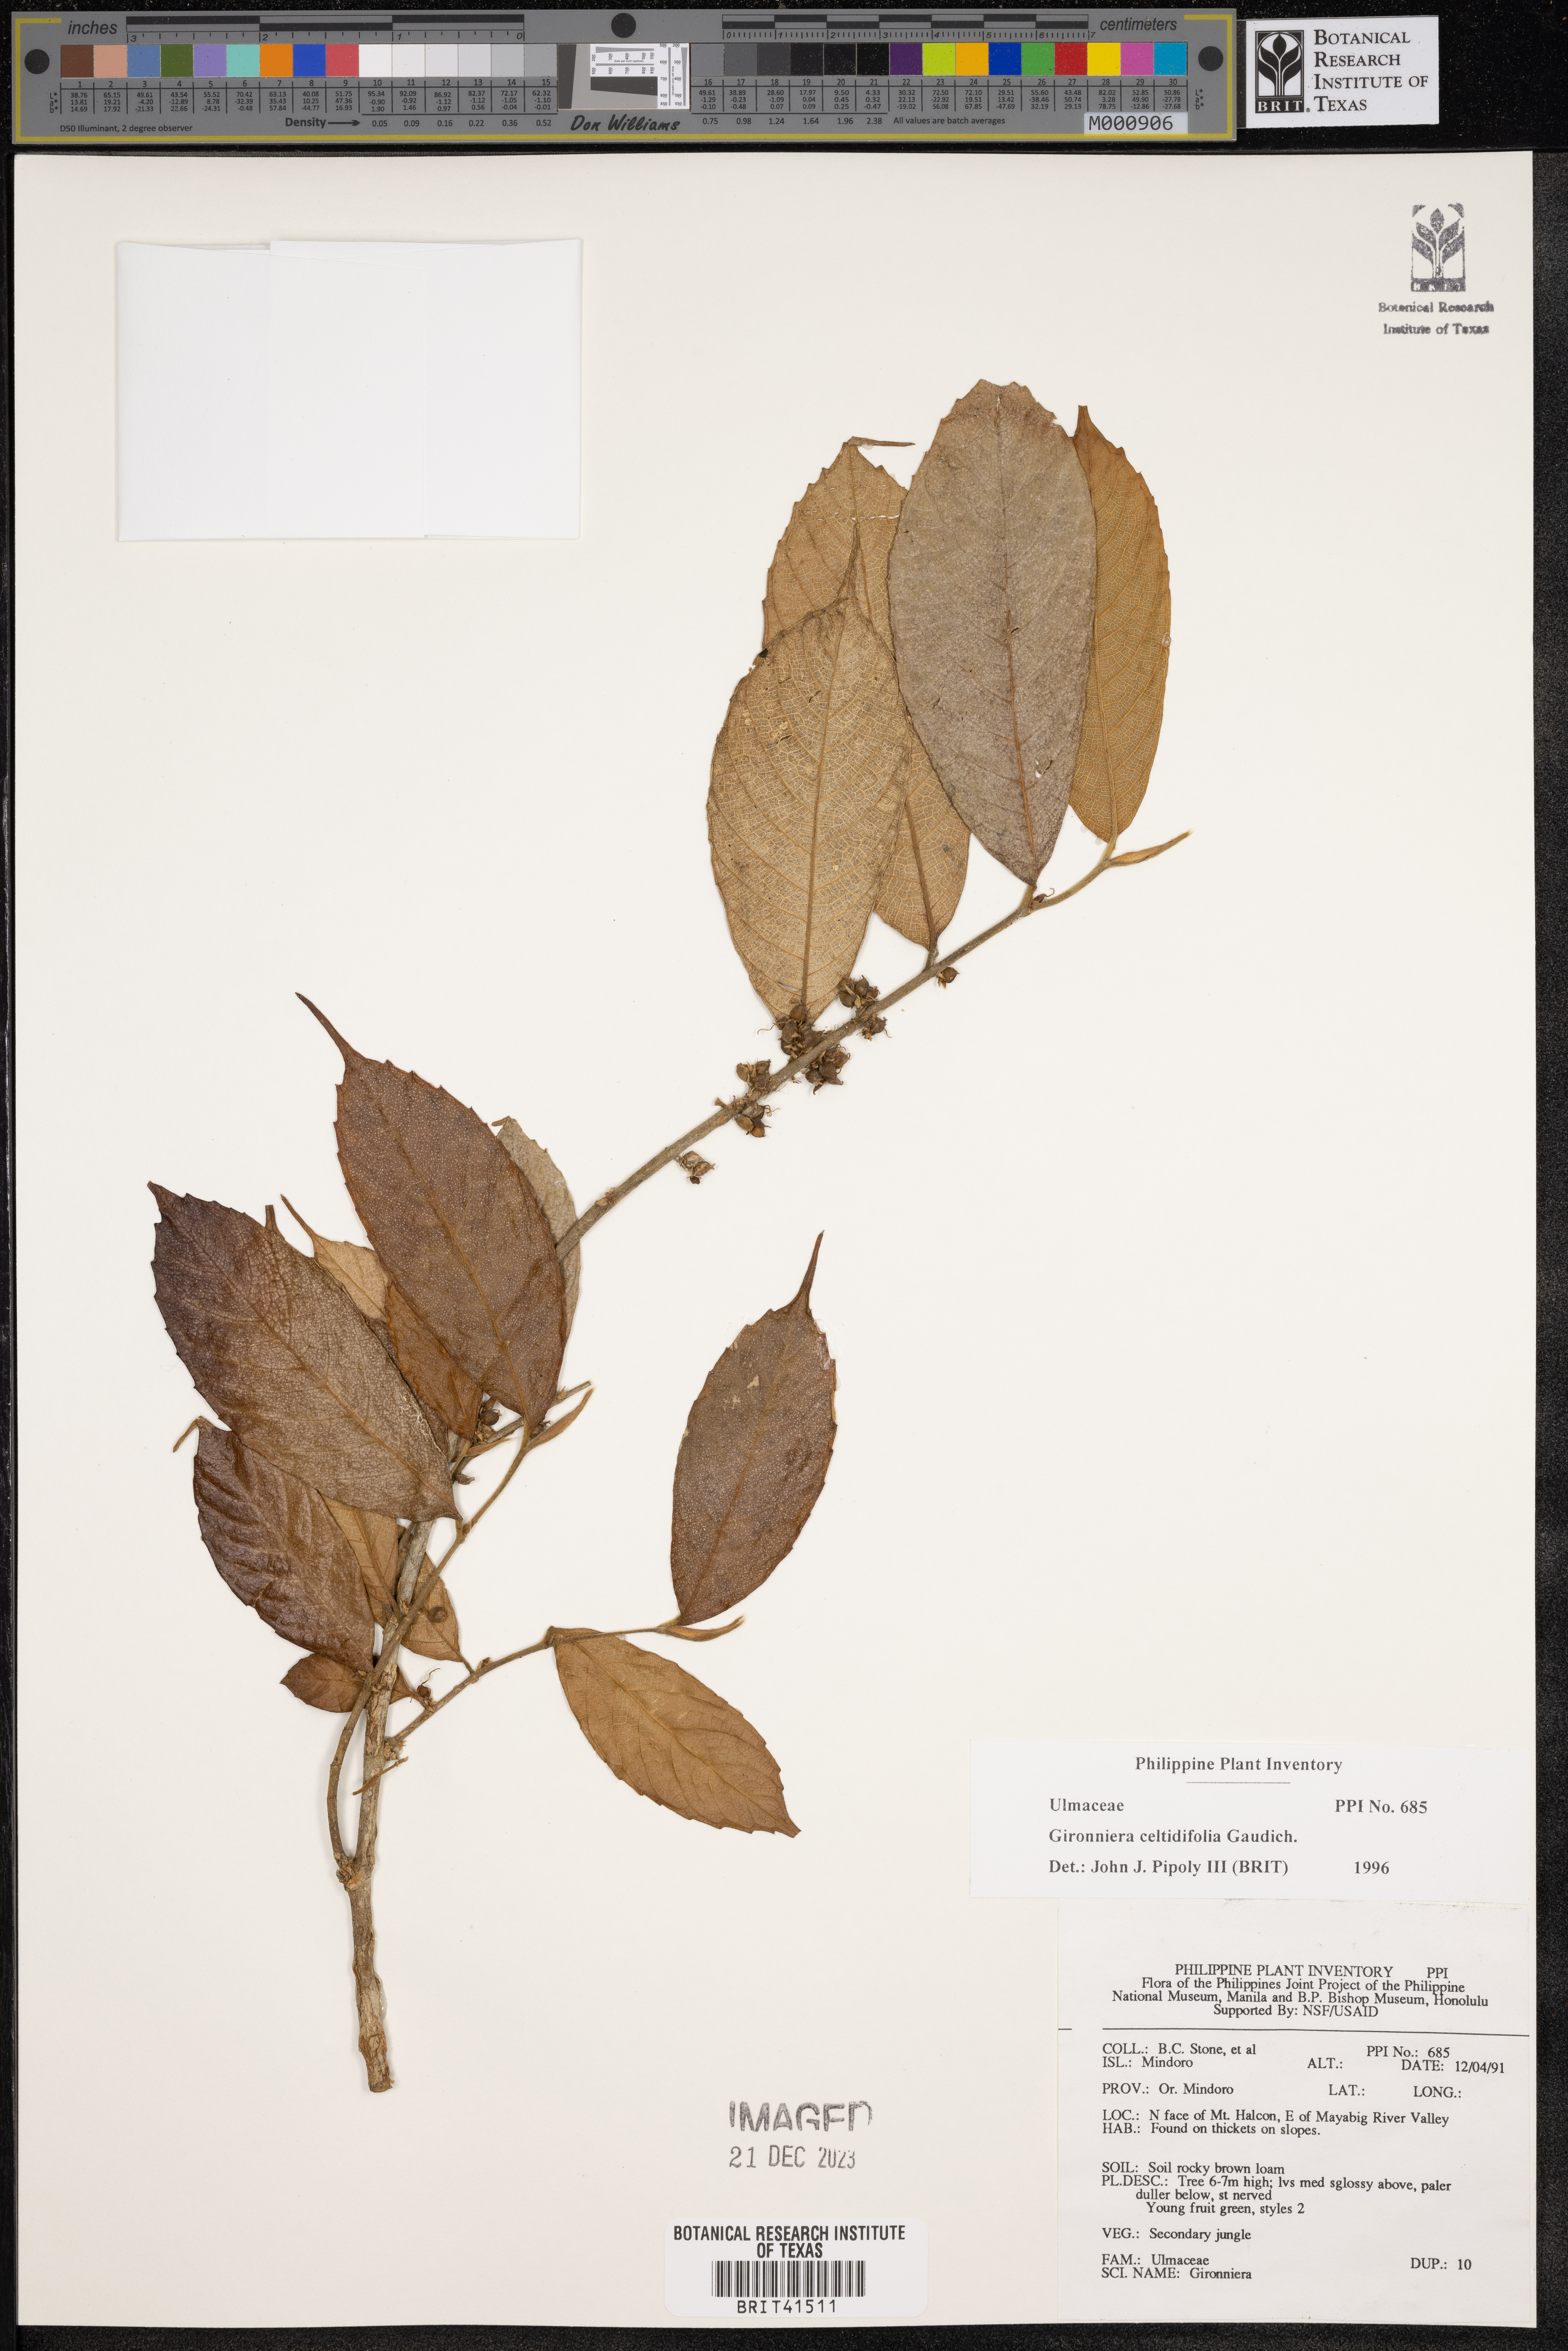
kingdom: Plantae
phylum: Tracheophyta
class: Magnoliopsida
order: Rosales
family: Cannabaceae
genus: Gironniera
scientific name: Gironniera celtidifolia
